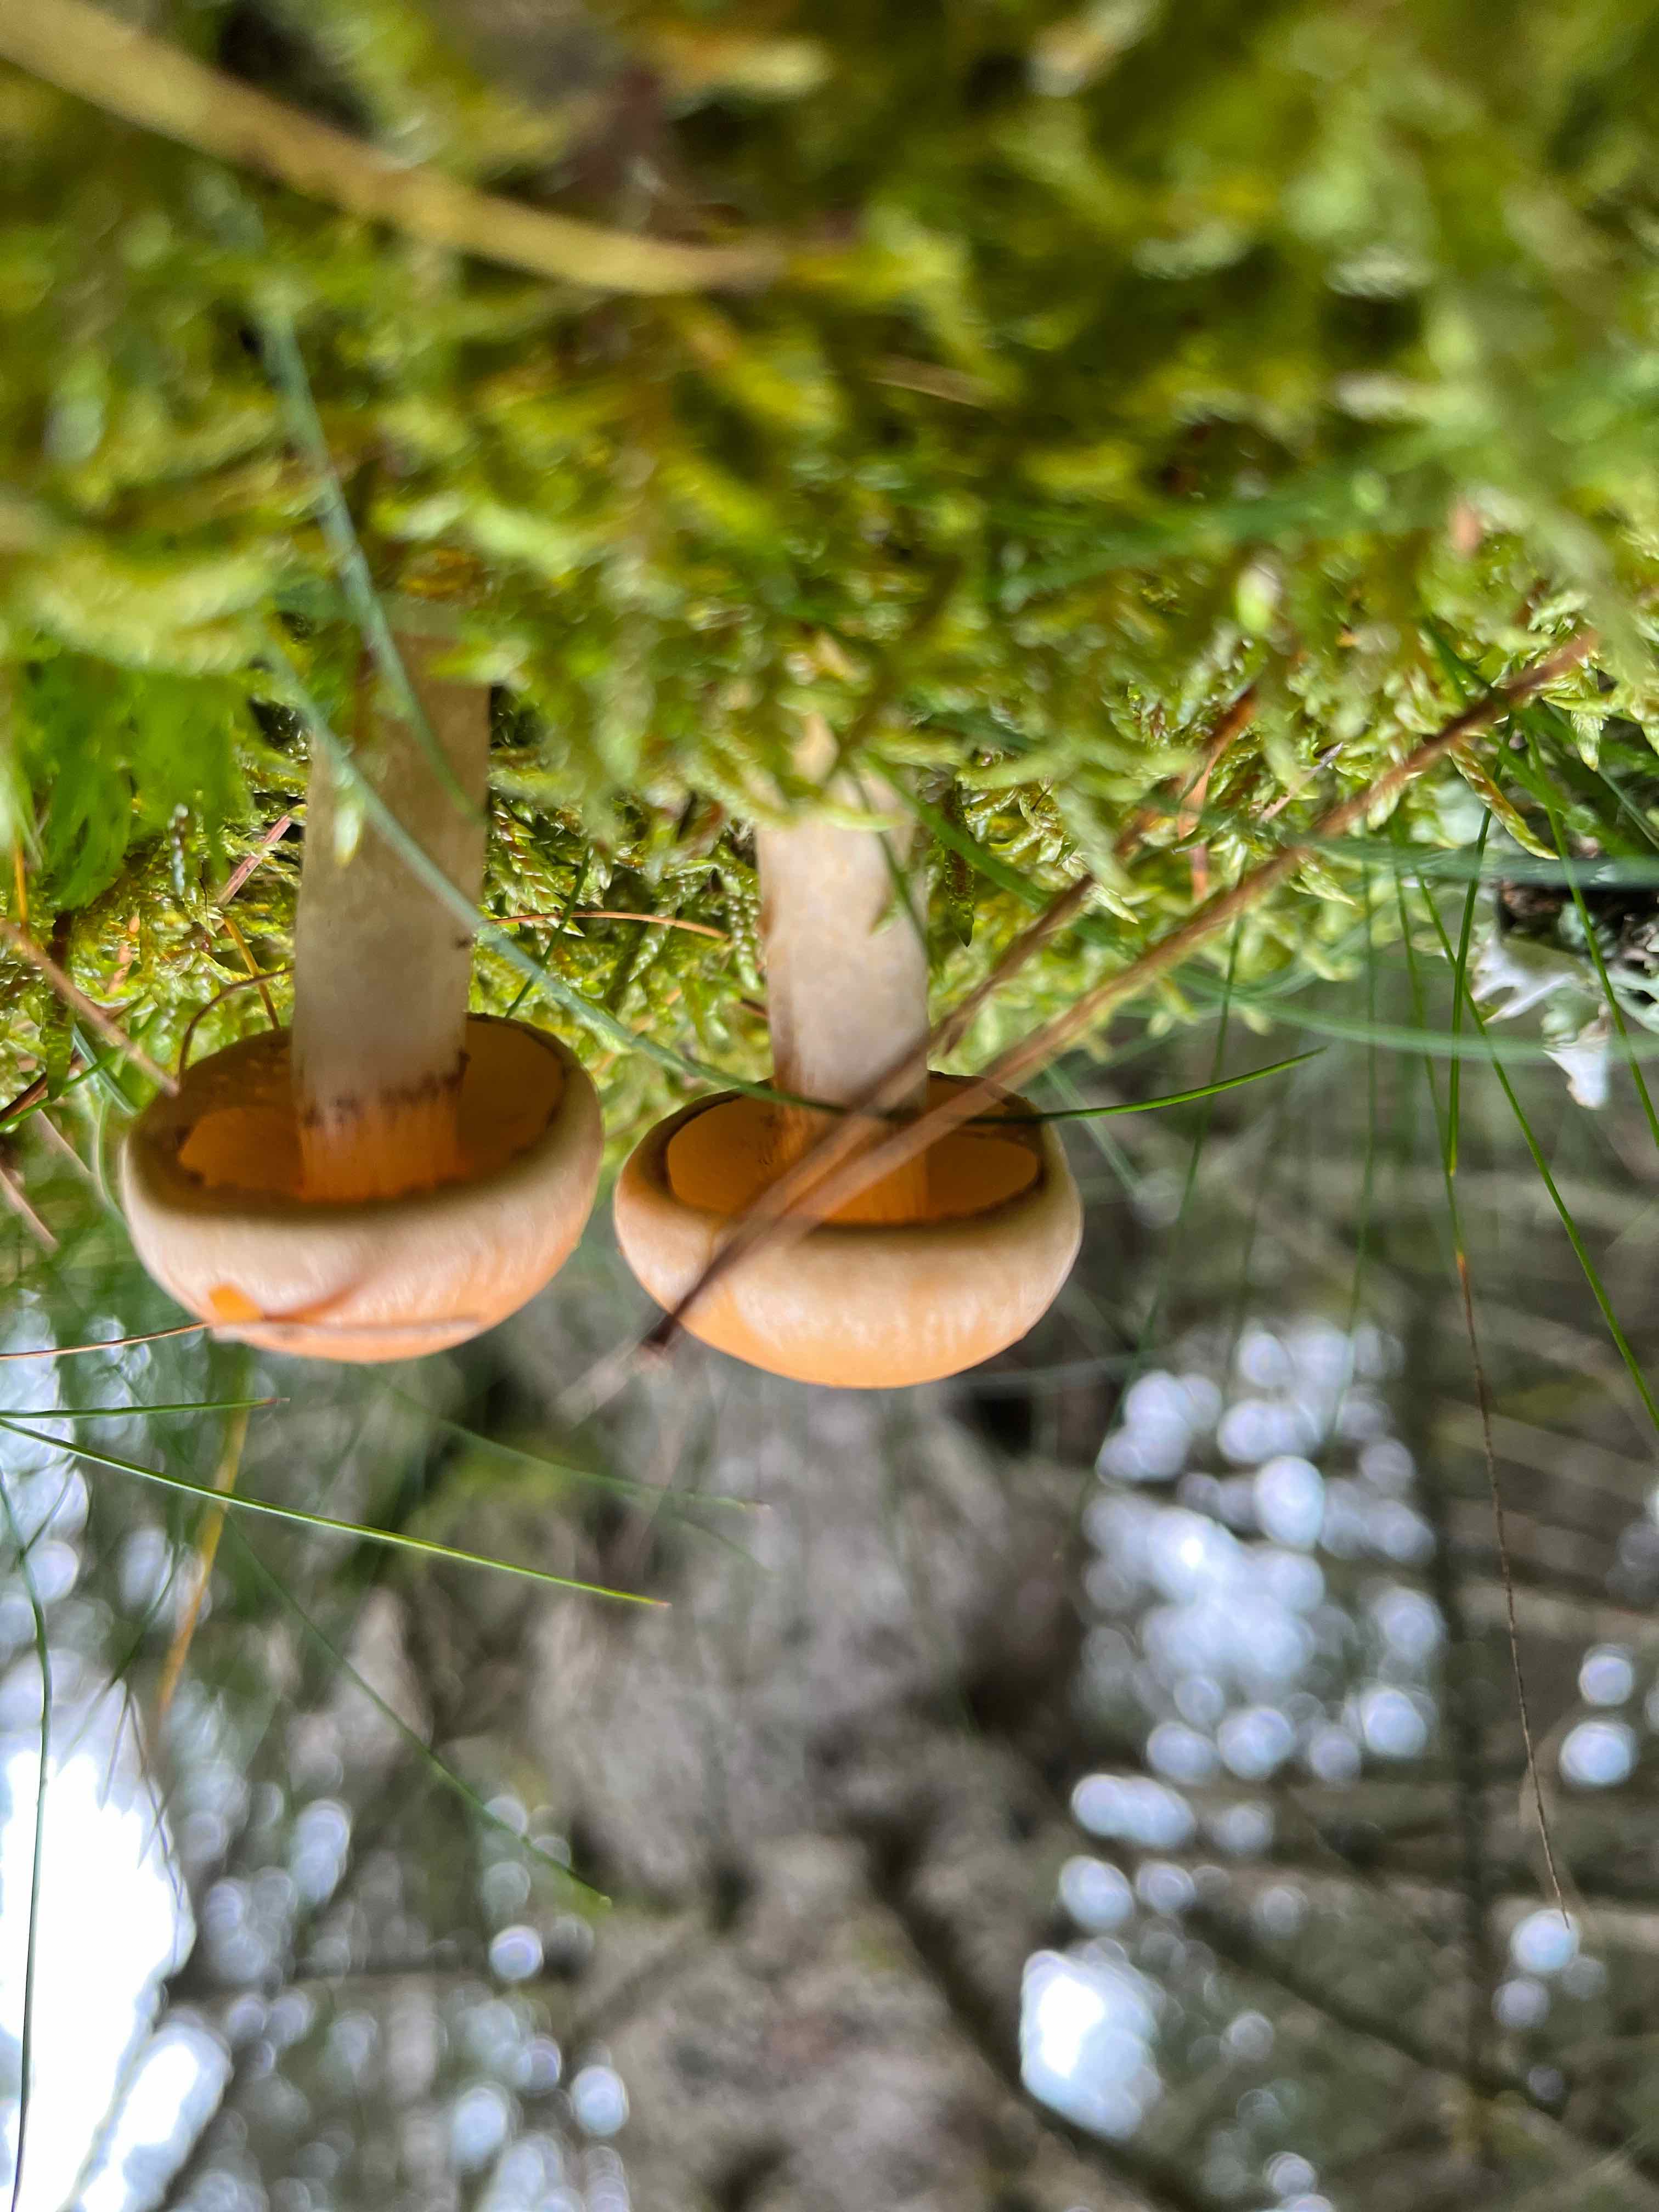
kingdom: Fungi
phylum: Basidiomycota
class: Agaricomycetes
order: Agaricales
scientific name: Agaricales
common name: champignonordenen
